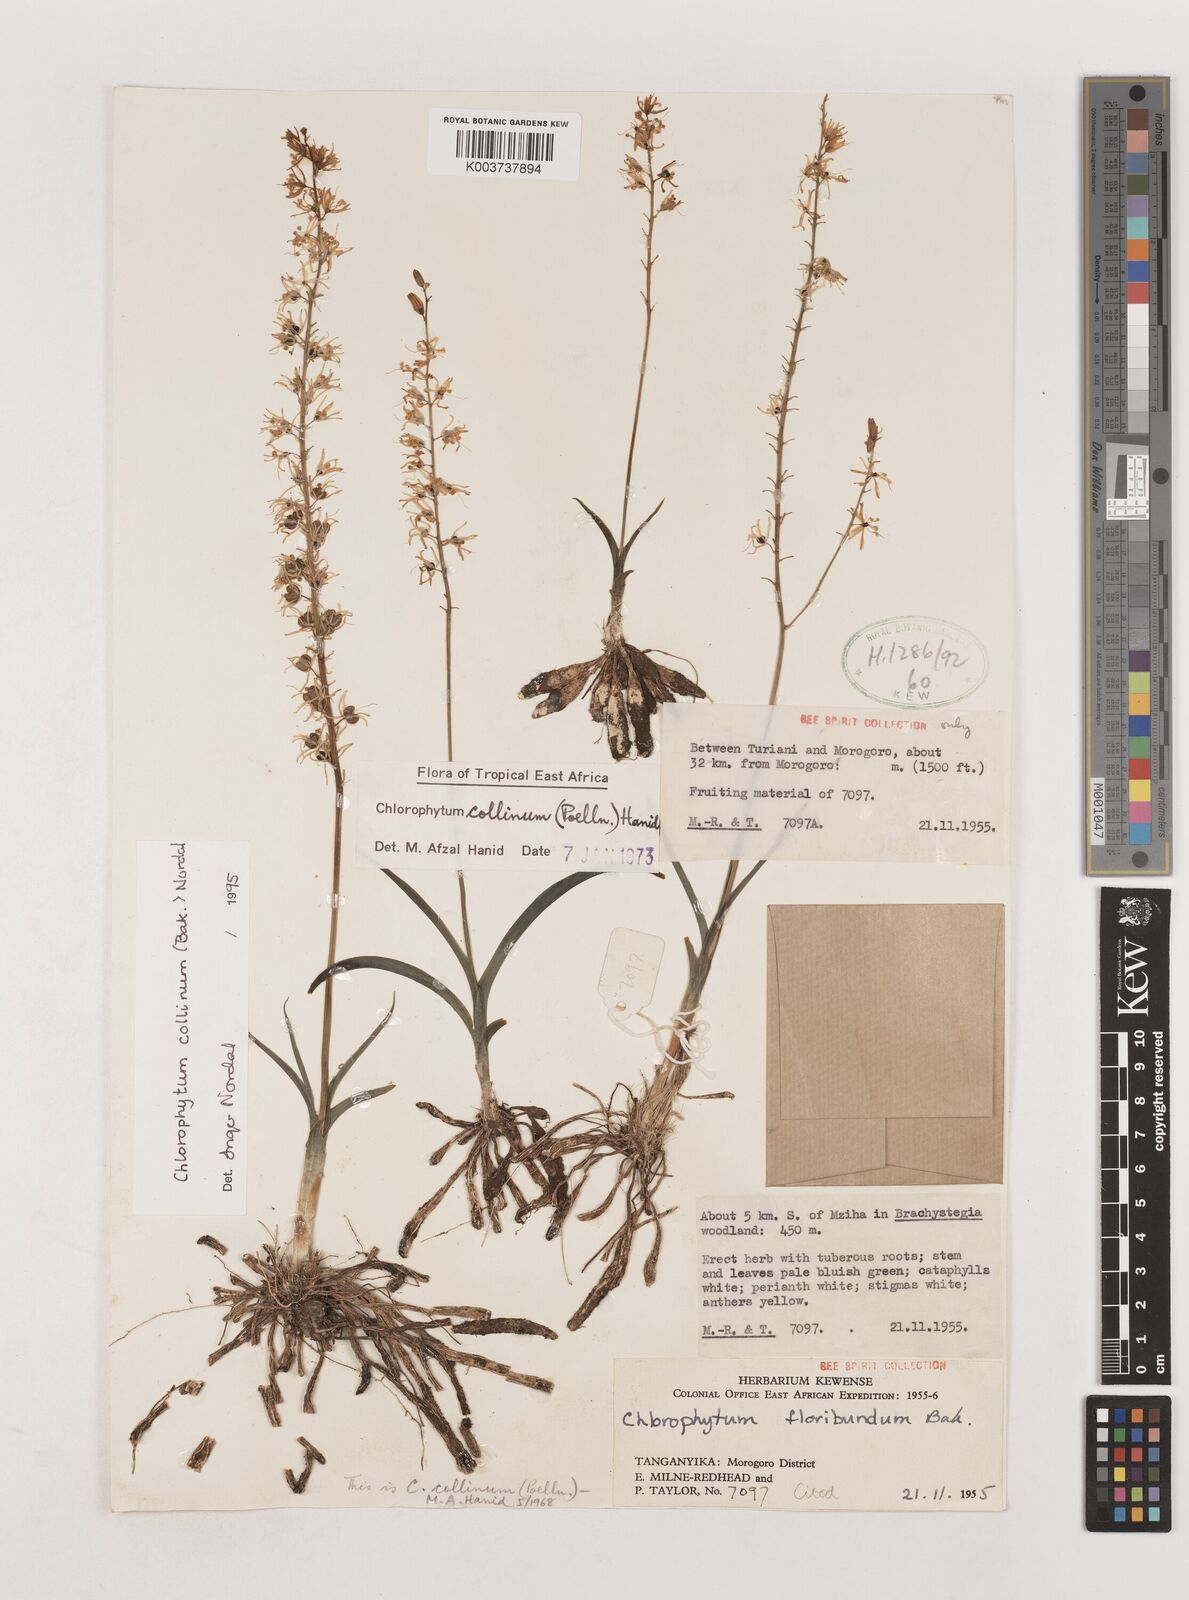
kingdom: Plantae
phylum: Tracheophyta
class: Liliopsida
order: Asparagales
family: Asparagaceae
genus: Chlorophytum
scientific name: Chlorophytum collinum
